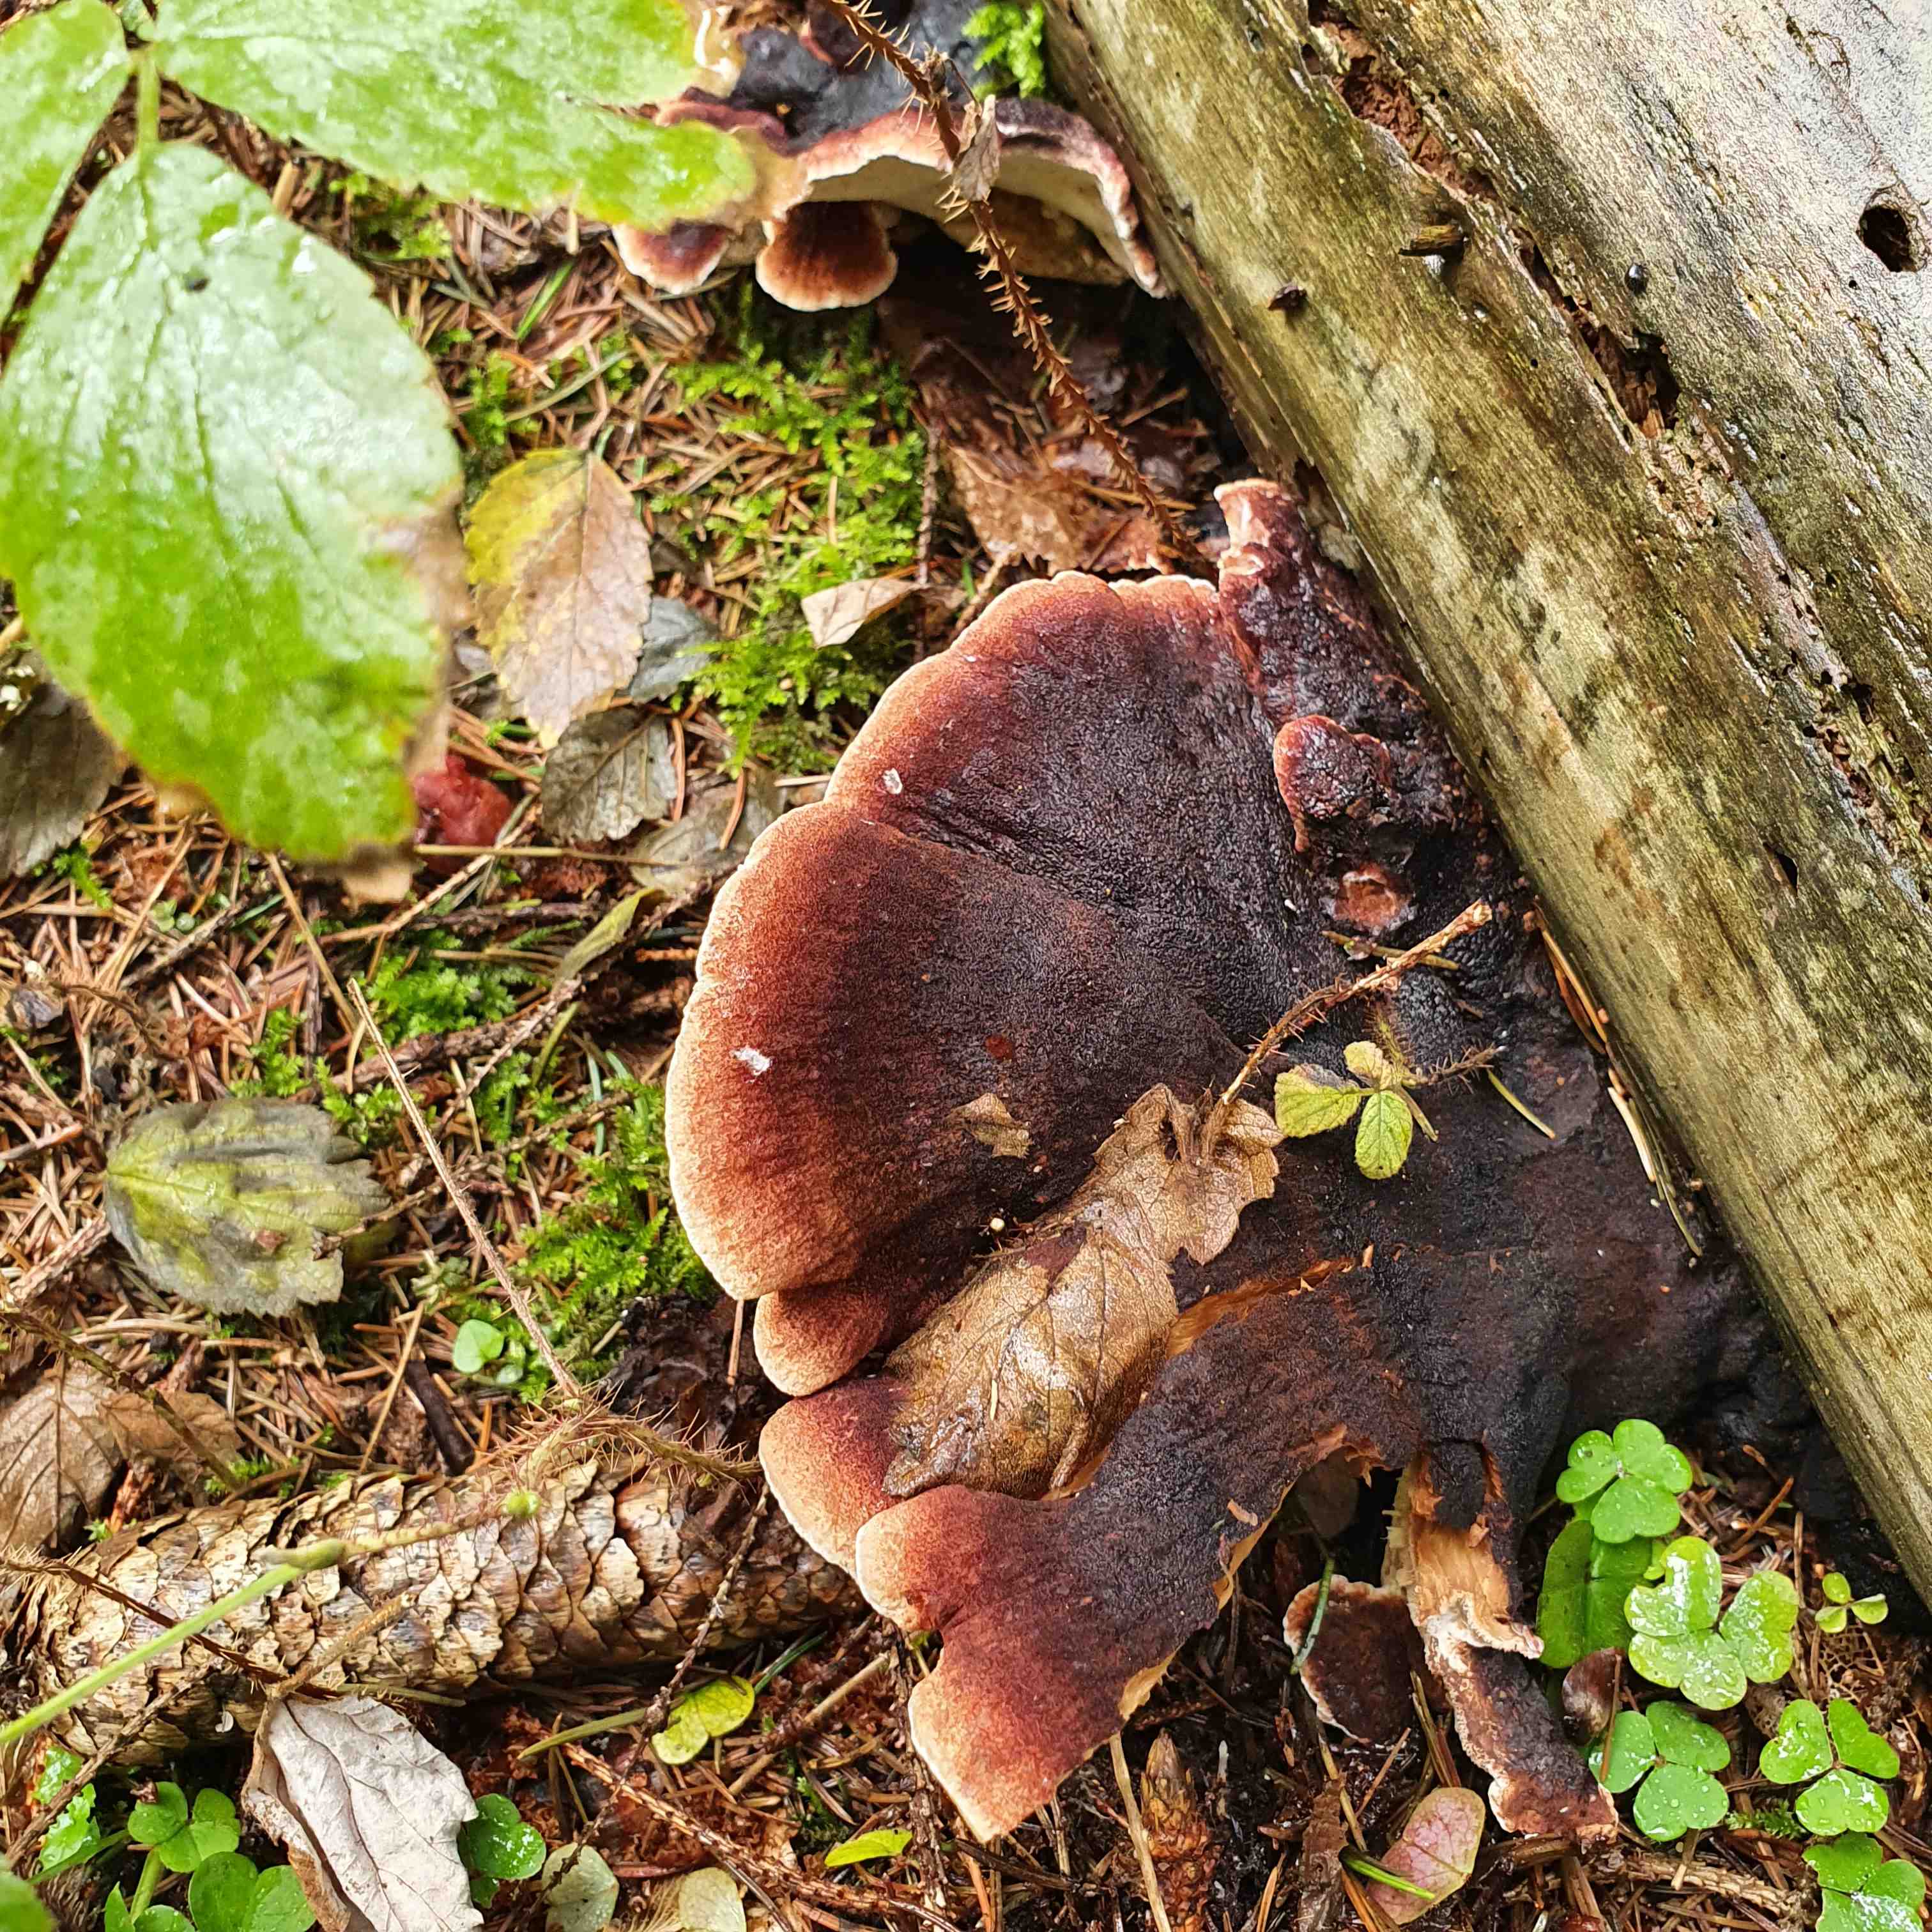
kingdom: Fungi
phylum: Basidiomycota
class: Agaricomycetes
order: Polyporales
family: Ischnodermataceae
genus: Ischnoderma
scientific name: Ischnoderma benzoinum
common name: gran-tjæreporesvamp
